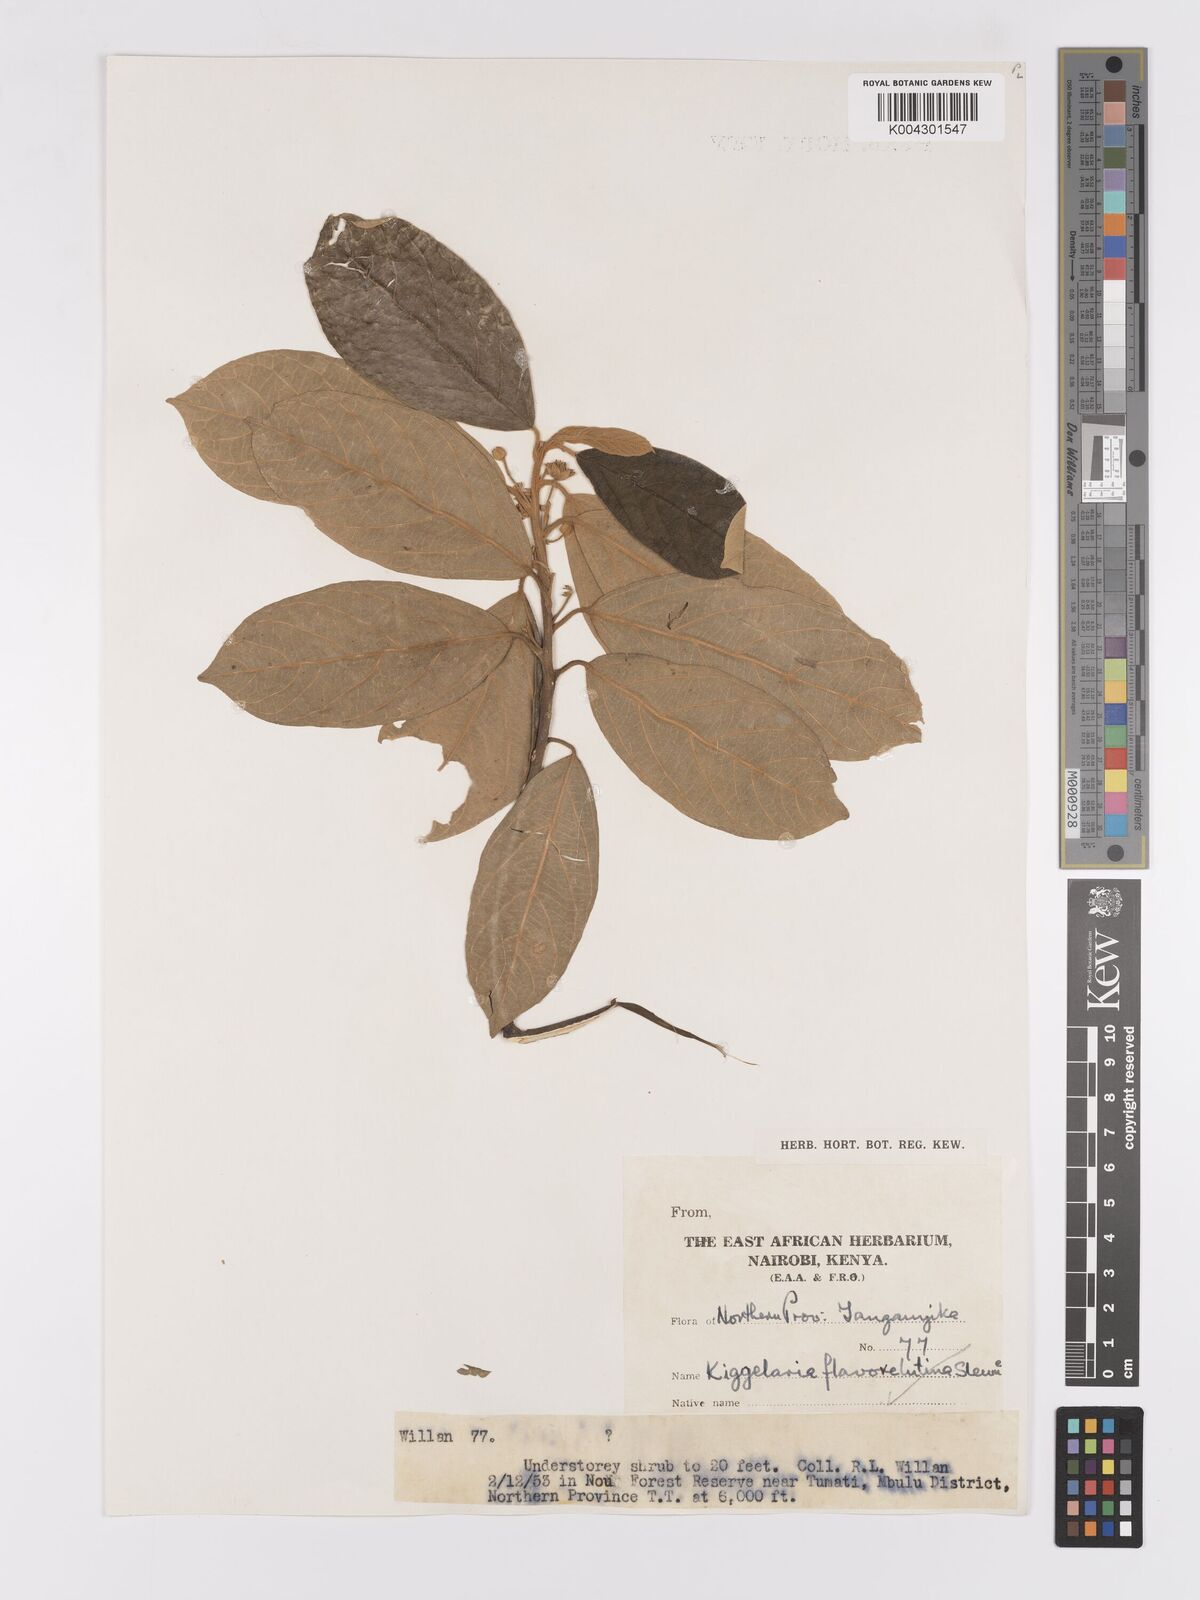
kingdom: Plantae
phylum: Tracheophyta
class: Magnoliopsida
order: Malpighiales
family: Achariaceae
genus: Kiggelaria
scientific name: Kiggelaria africana
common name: Wild peach
